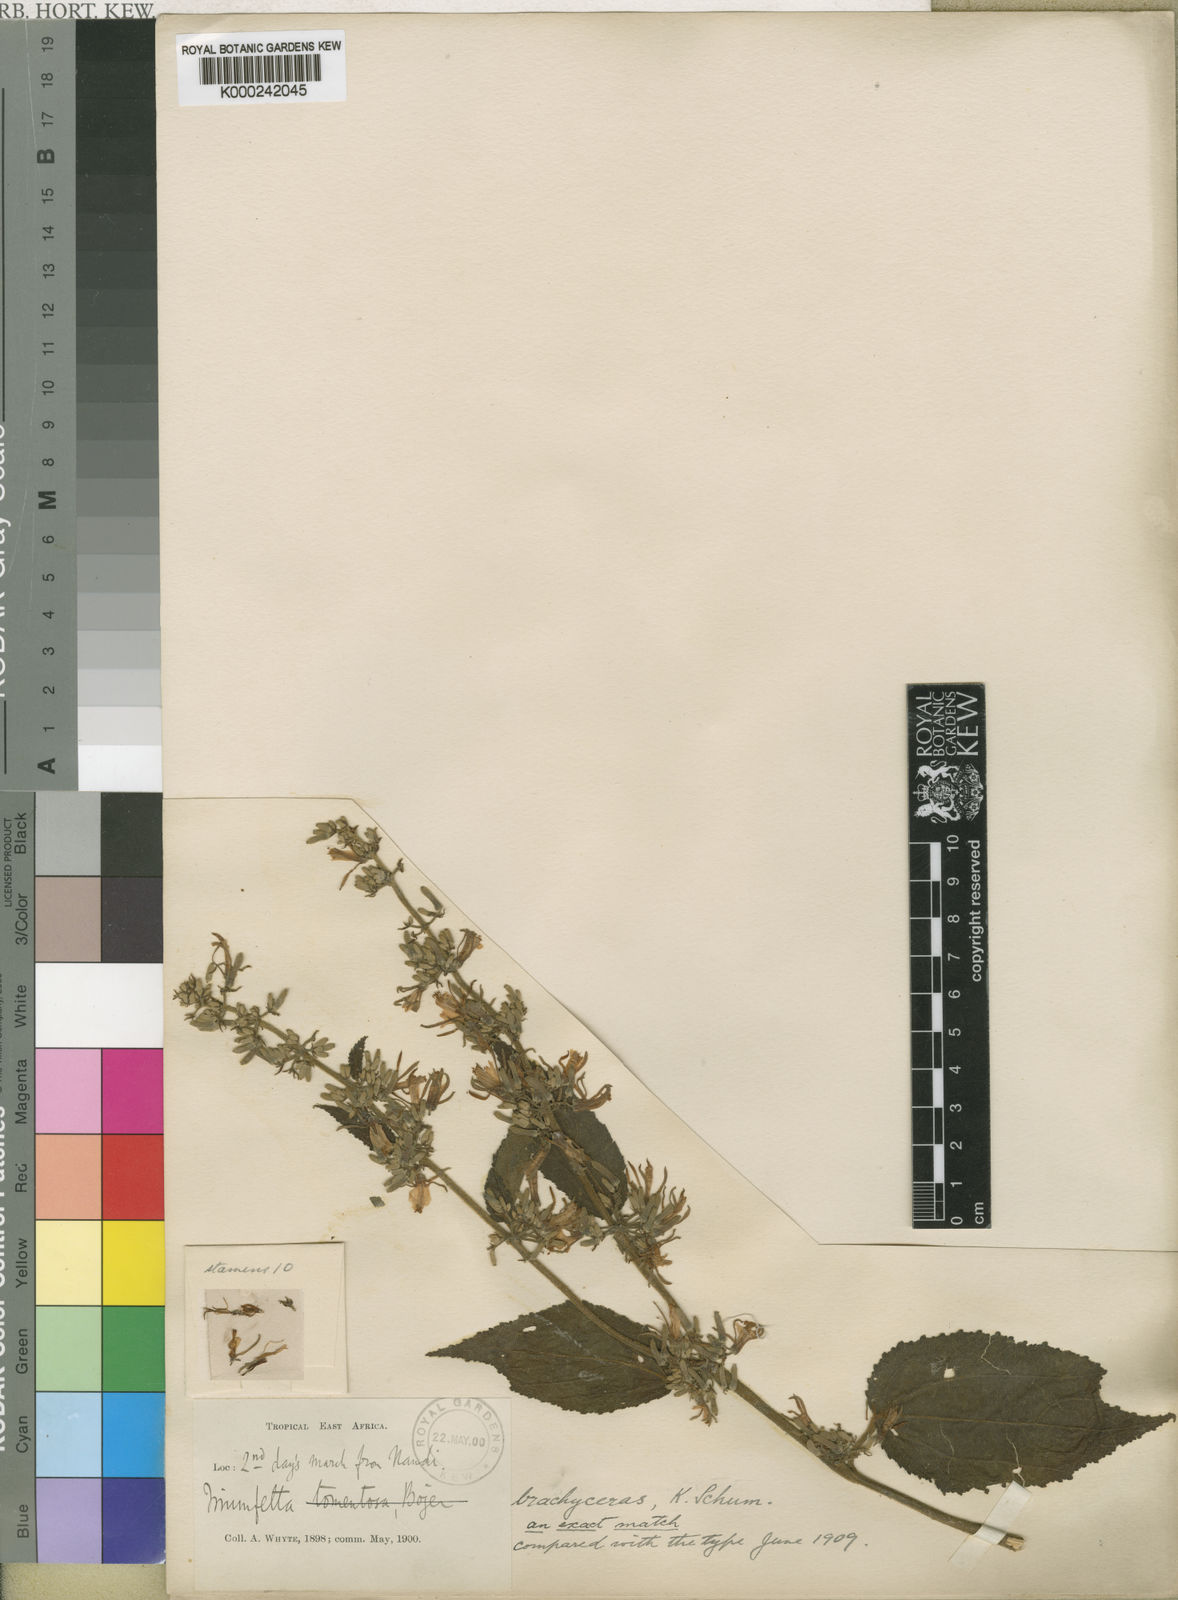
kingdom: Plantae
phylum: Tracheophyta
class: Magnoliopsida
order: Malvales
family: Malvaceae
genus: Triumfetta
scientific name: Triumfetta brachyceras
